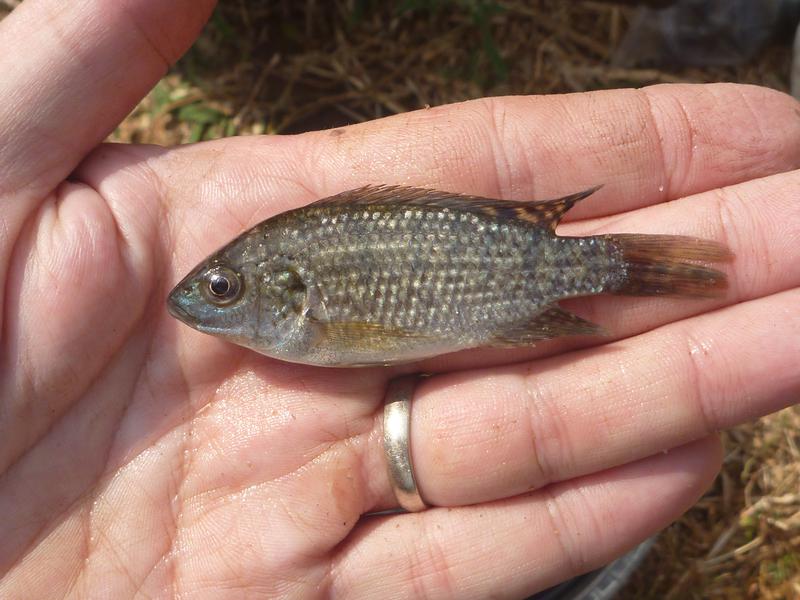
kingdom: Animalia
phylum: Chordata
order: Perciformes
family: Cichlidae
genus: Oreochromis
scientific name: Oreochromis shiranus
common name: Chilwa tilapia
